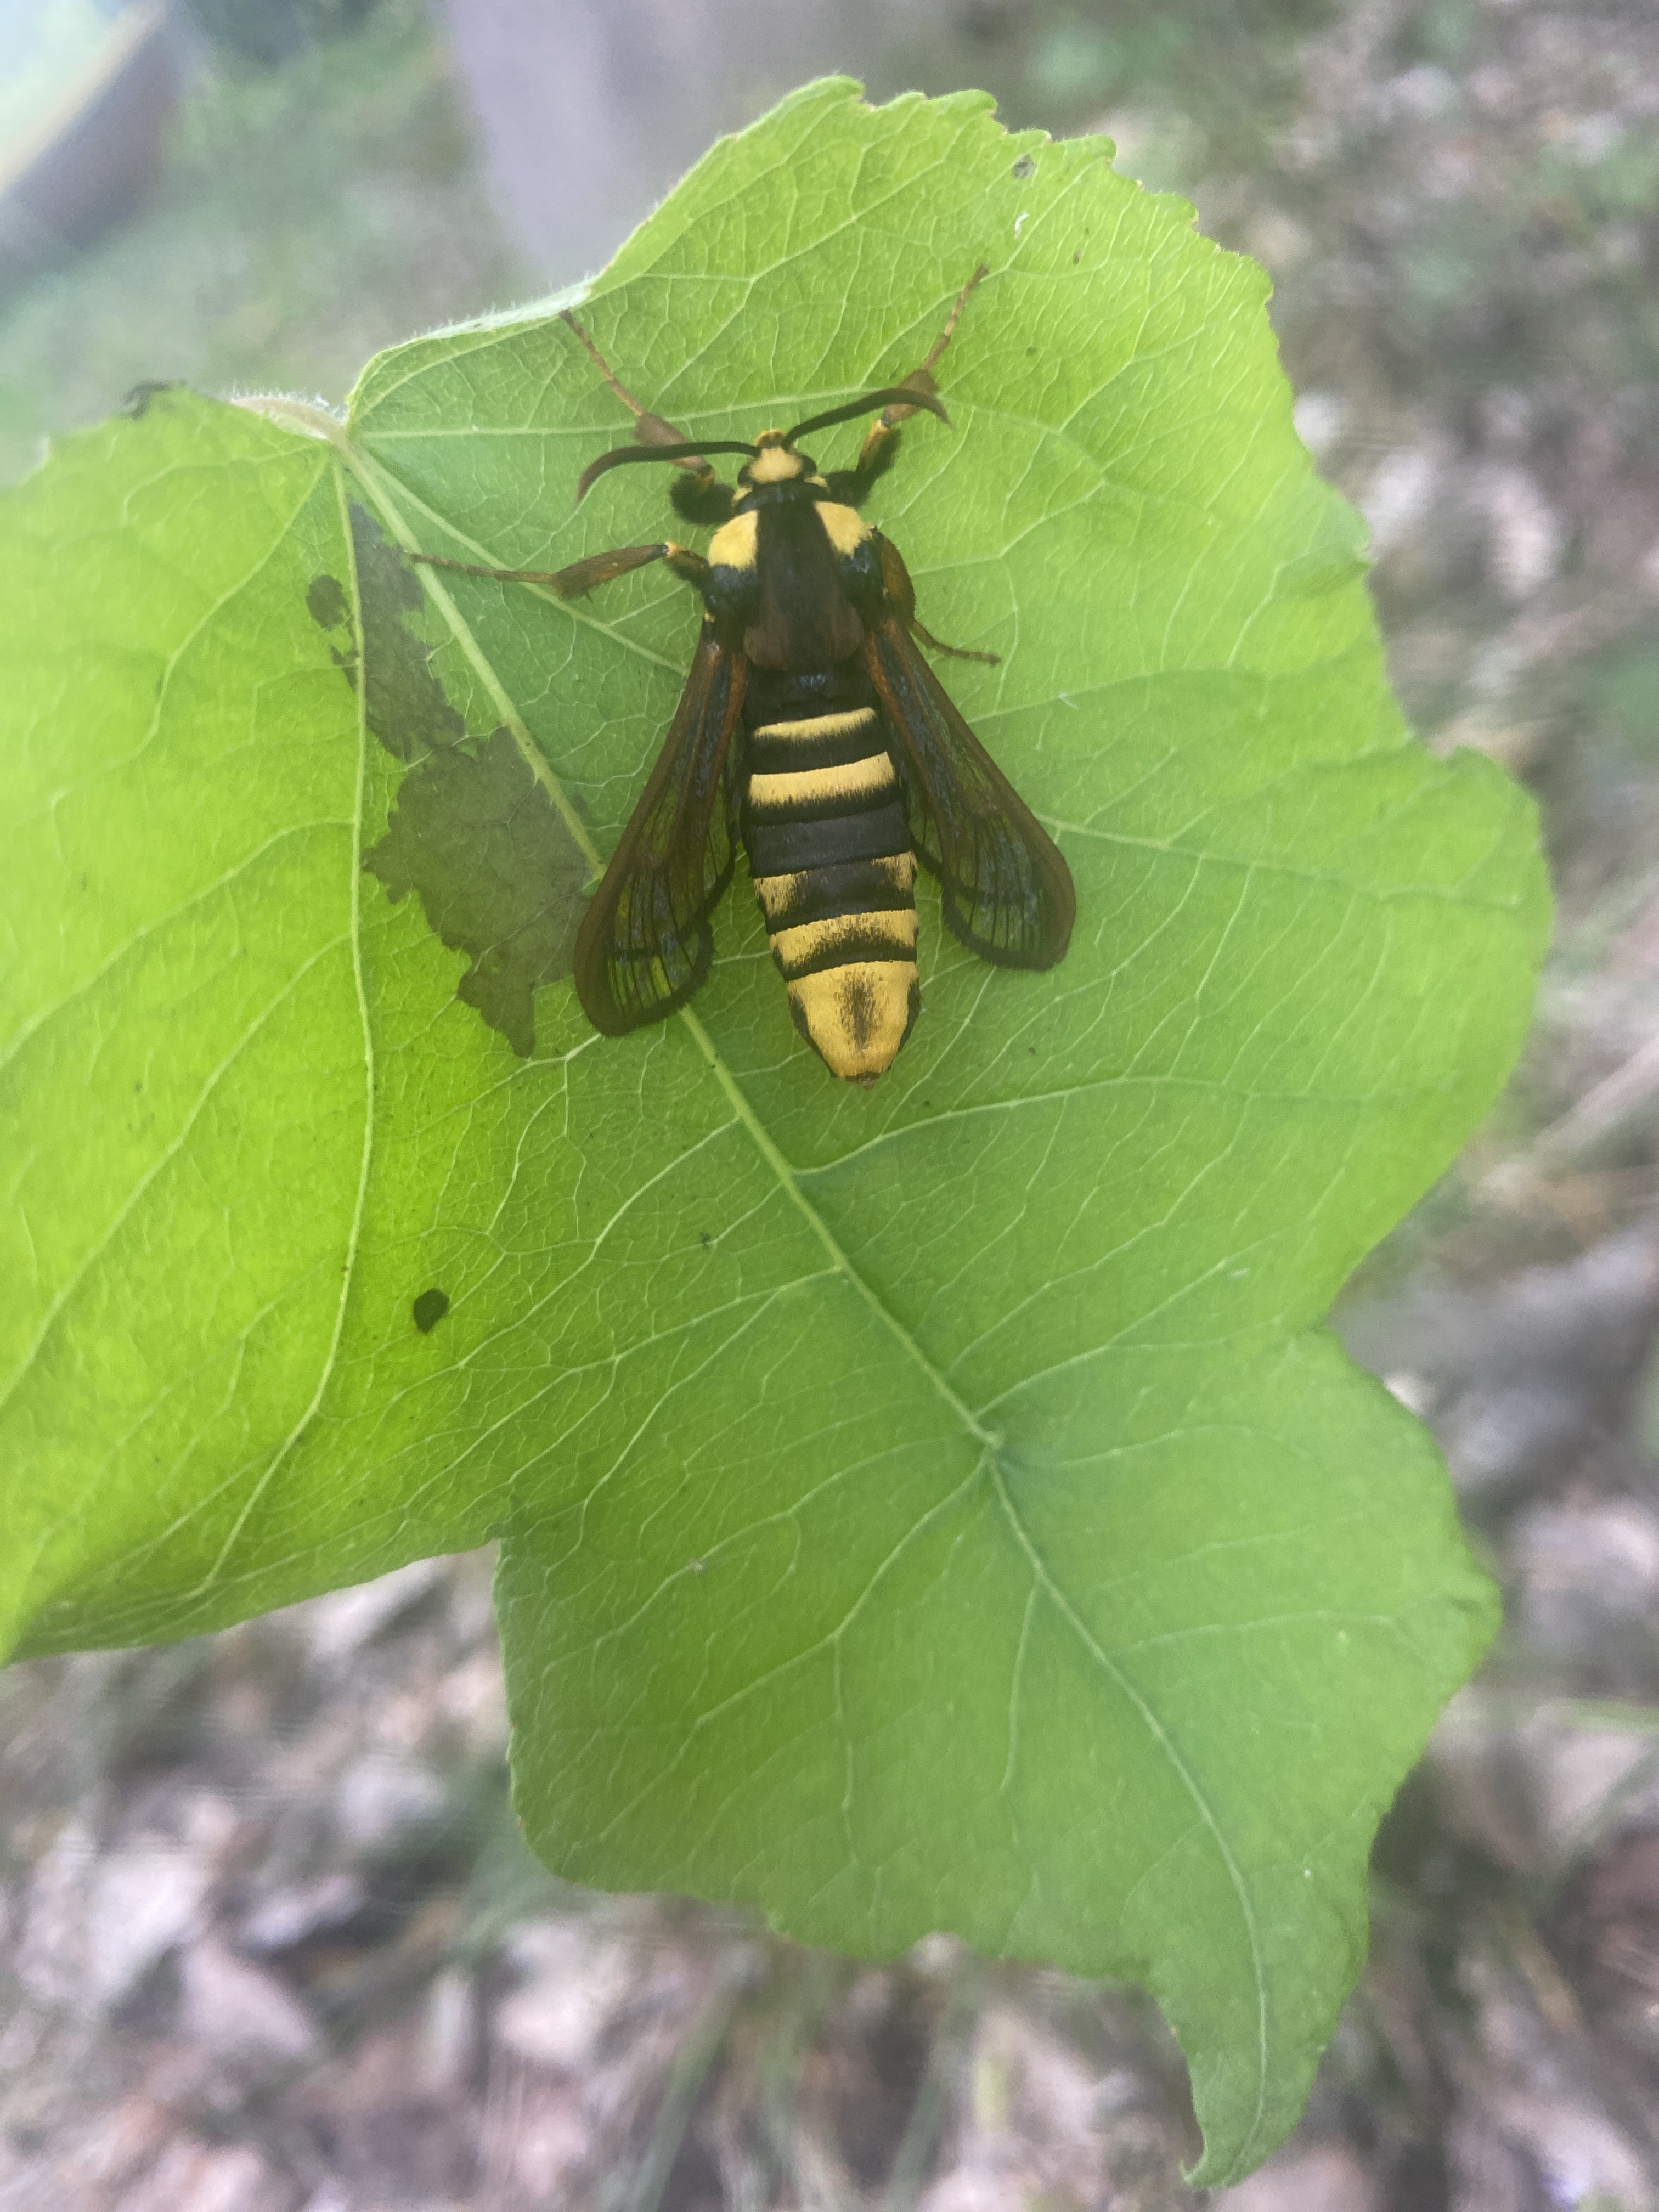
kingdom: Animalia
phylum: Arthropoda
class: Insecta
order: Lepidoptera
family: Sesiidae
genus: Sesia
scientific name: Sesia apiformis
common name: Hornet moth
